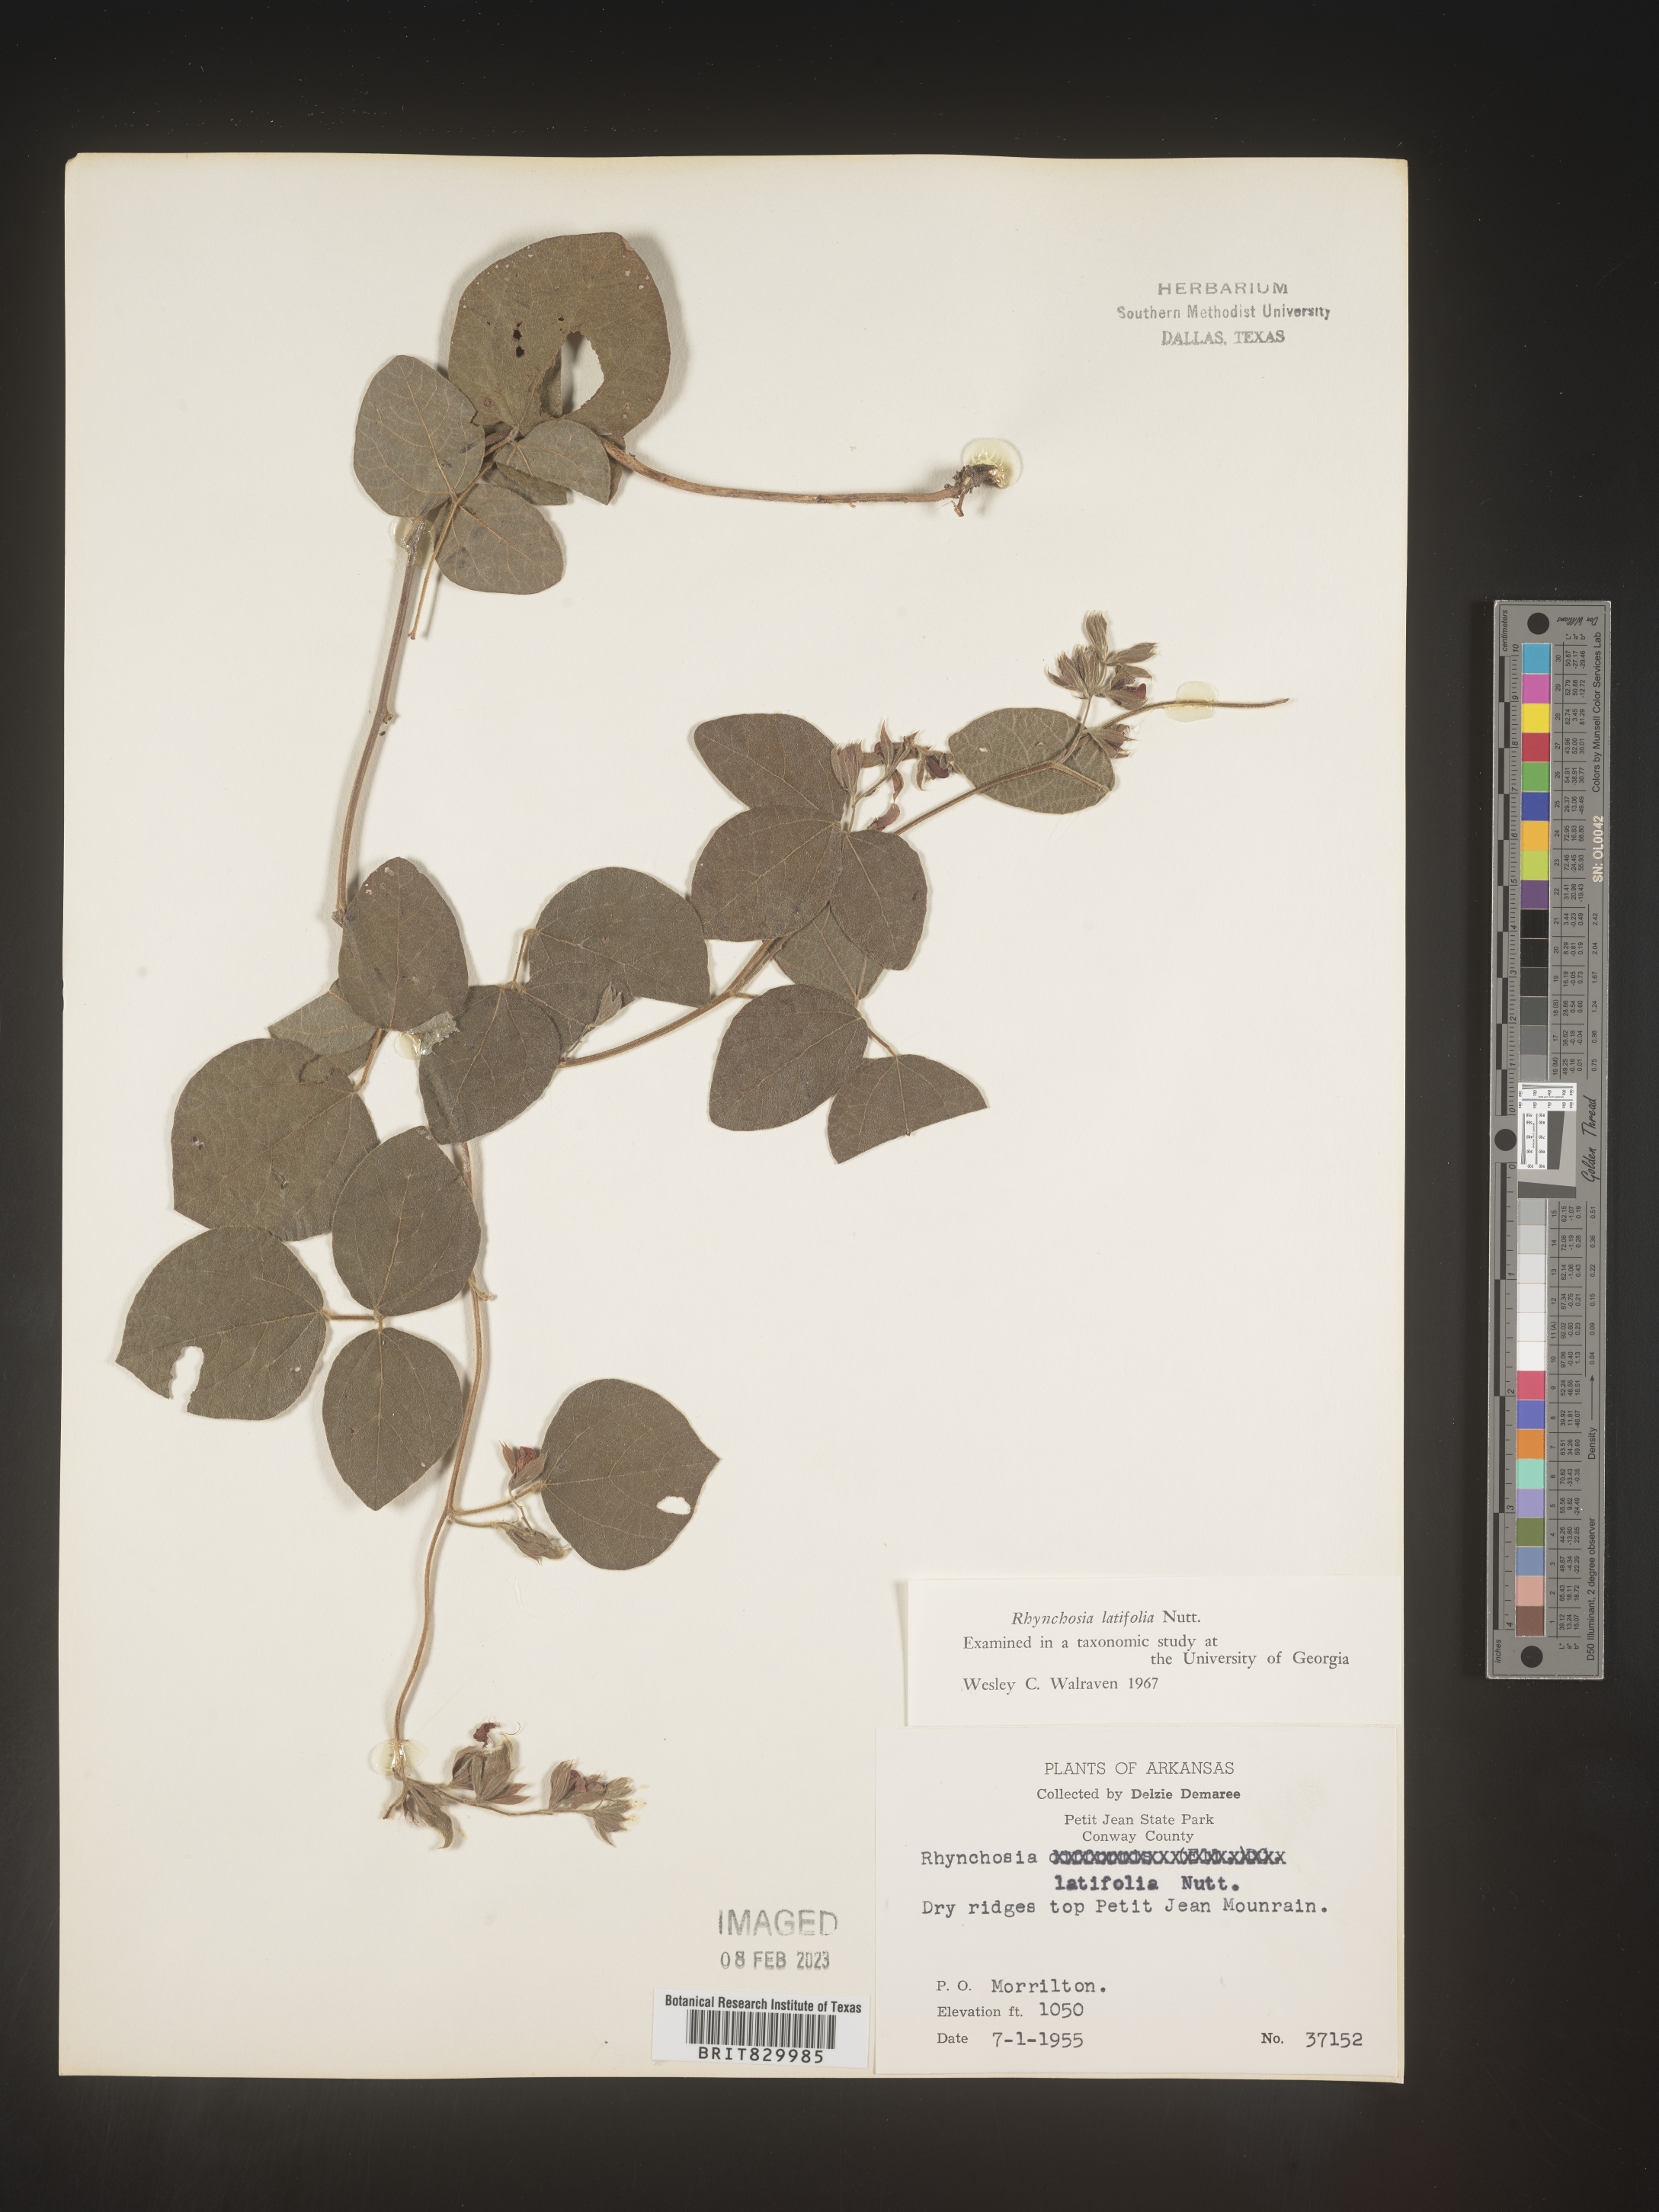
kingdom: Plantae
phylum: Tracheophyta
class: Magnoliopsida
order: Fabales
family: Fabaceae
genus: Rhynchosia
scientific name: Rhynchosia latifolia
